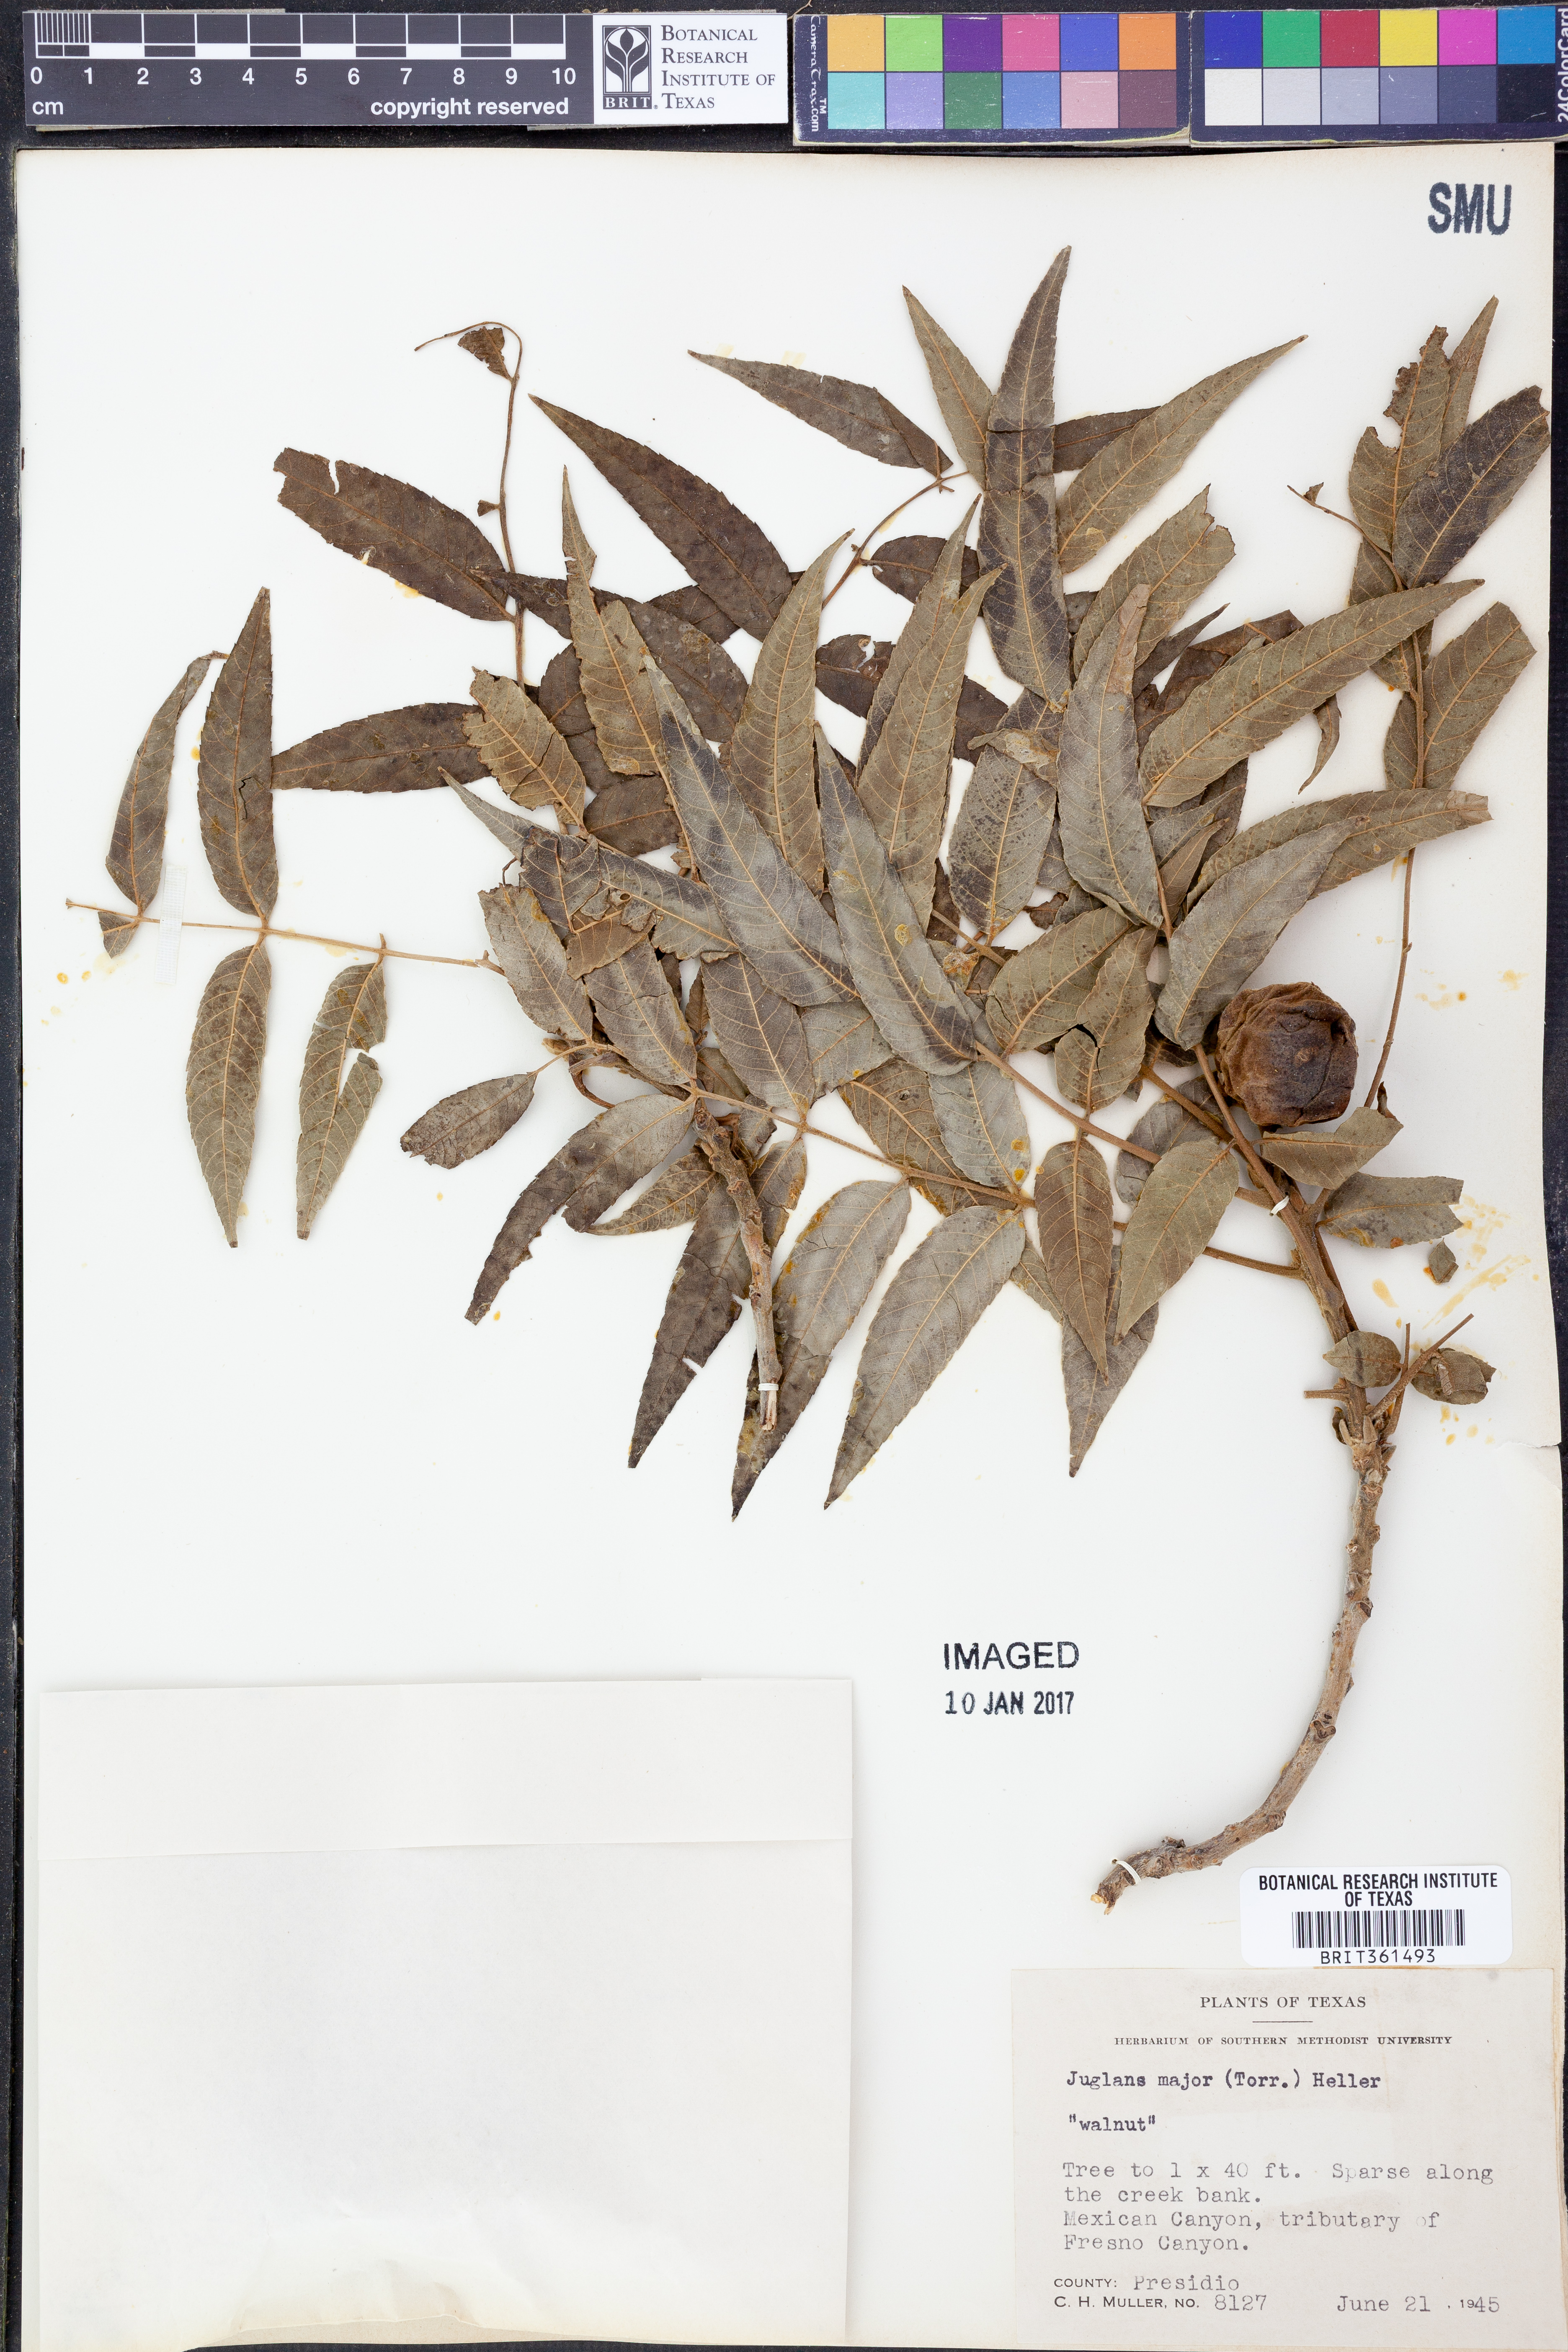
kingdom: Plantae
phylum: Tracheophyta
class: Magnoliopsida
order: Fagales
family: Juglandaceae
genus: Juglans
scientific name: Juglans major
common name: Arizona walnut
